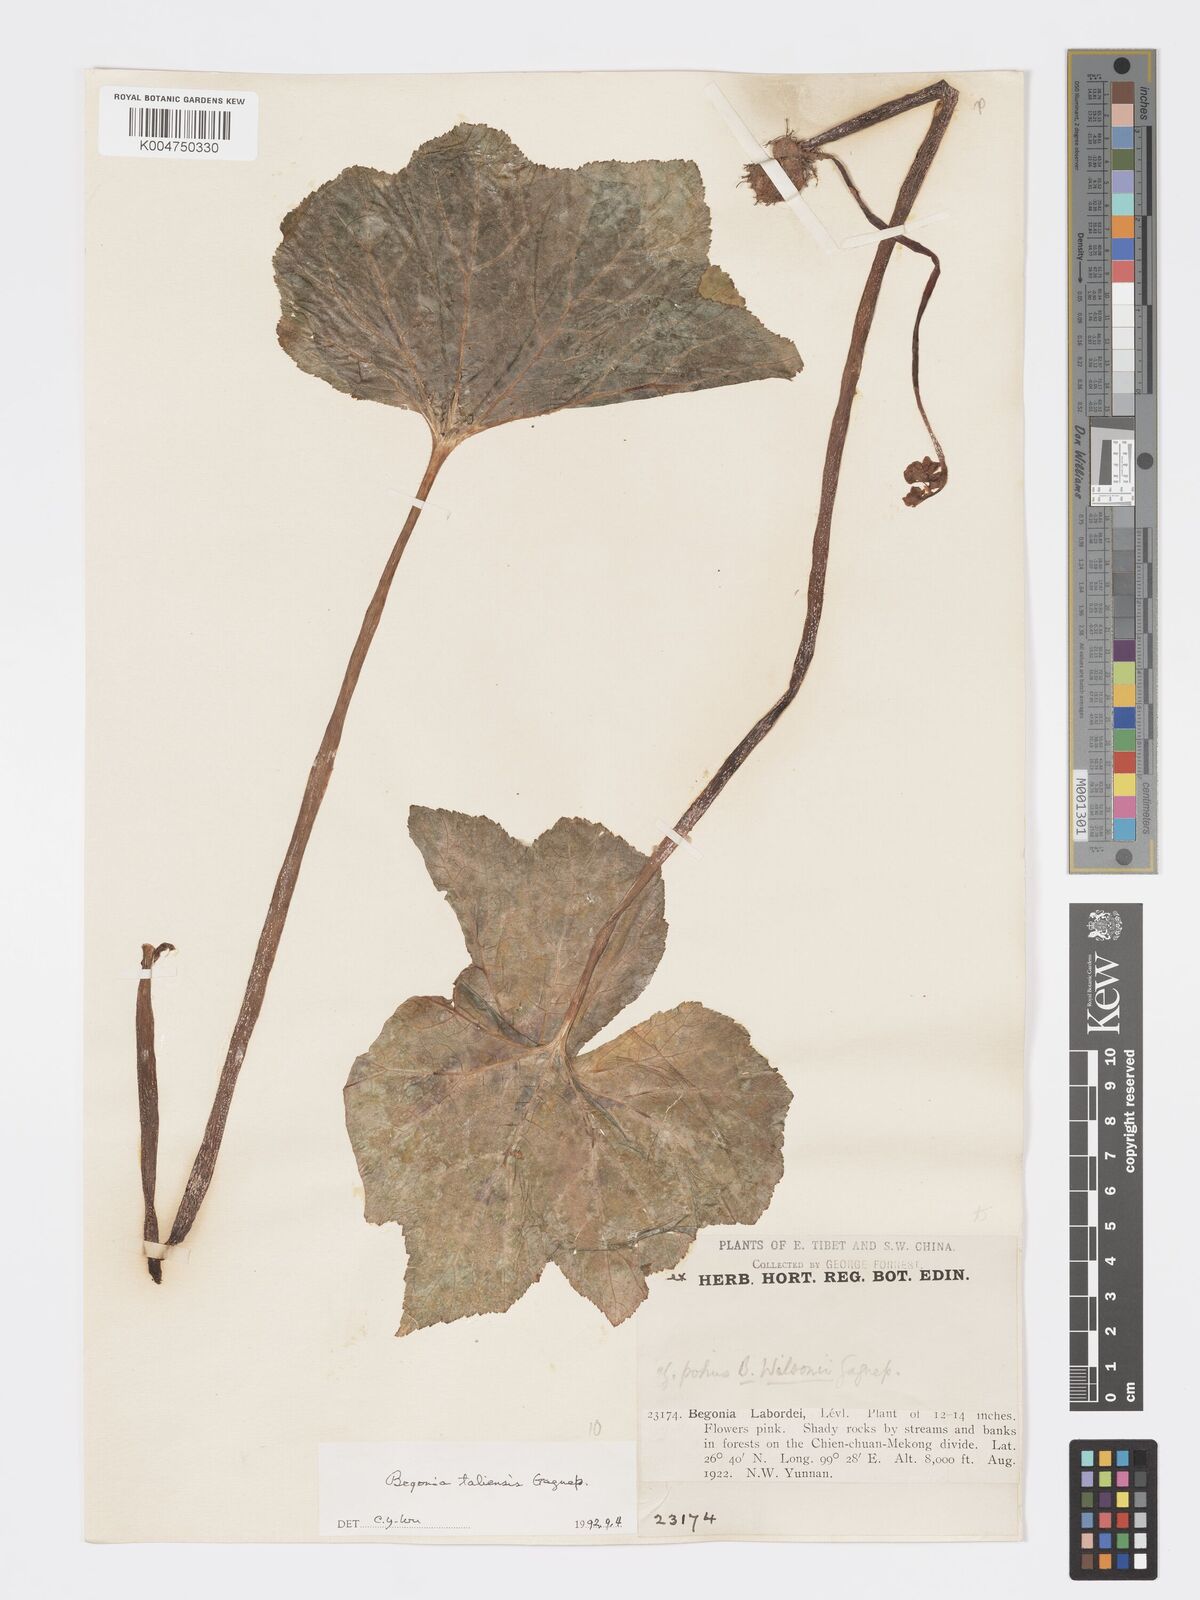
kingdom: Plantae
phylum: Tracheophyta
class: Magnoliopsida
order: Cucurbitales
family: Begoniaceae
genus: Begonia
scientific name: Begonia taliensis
